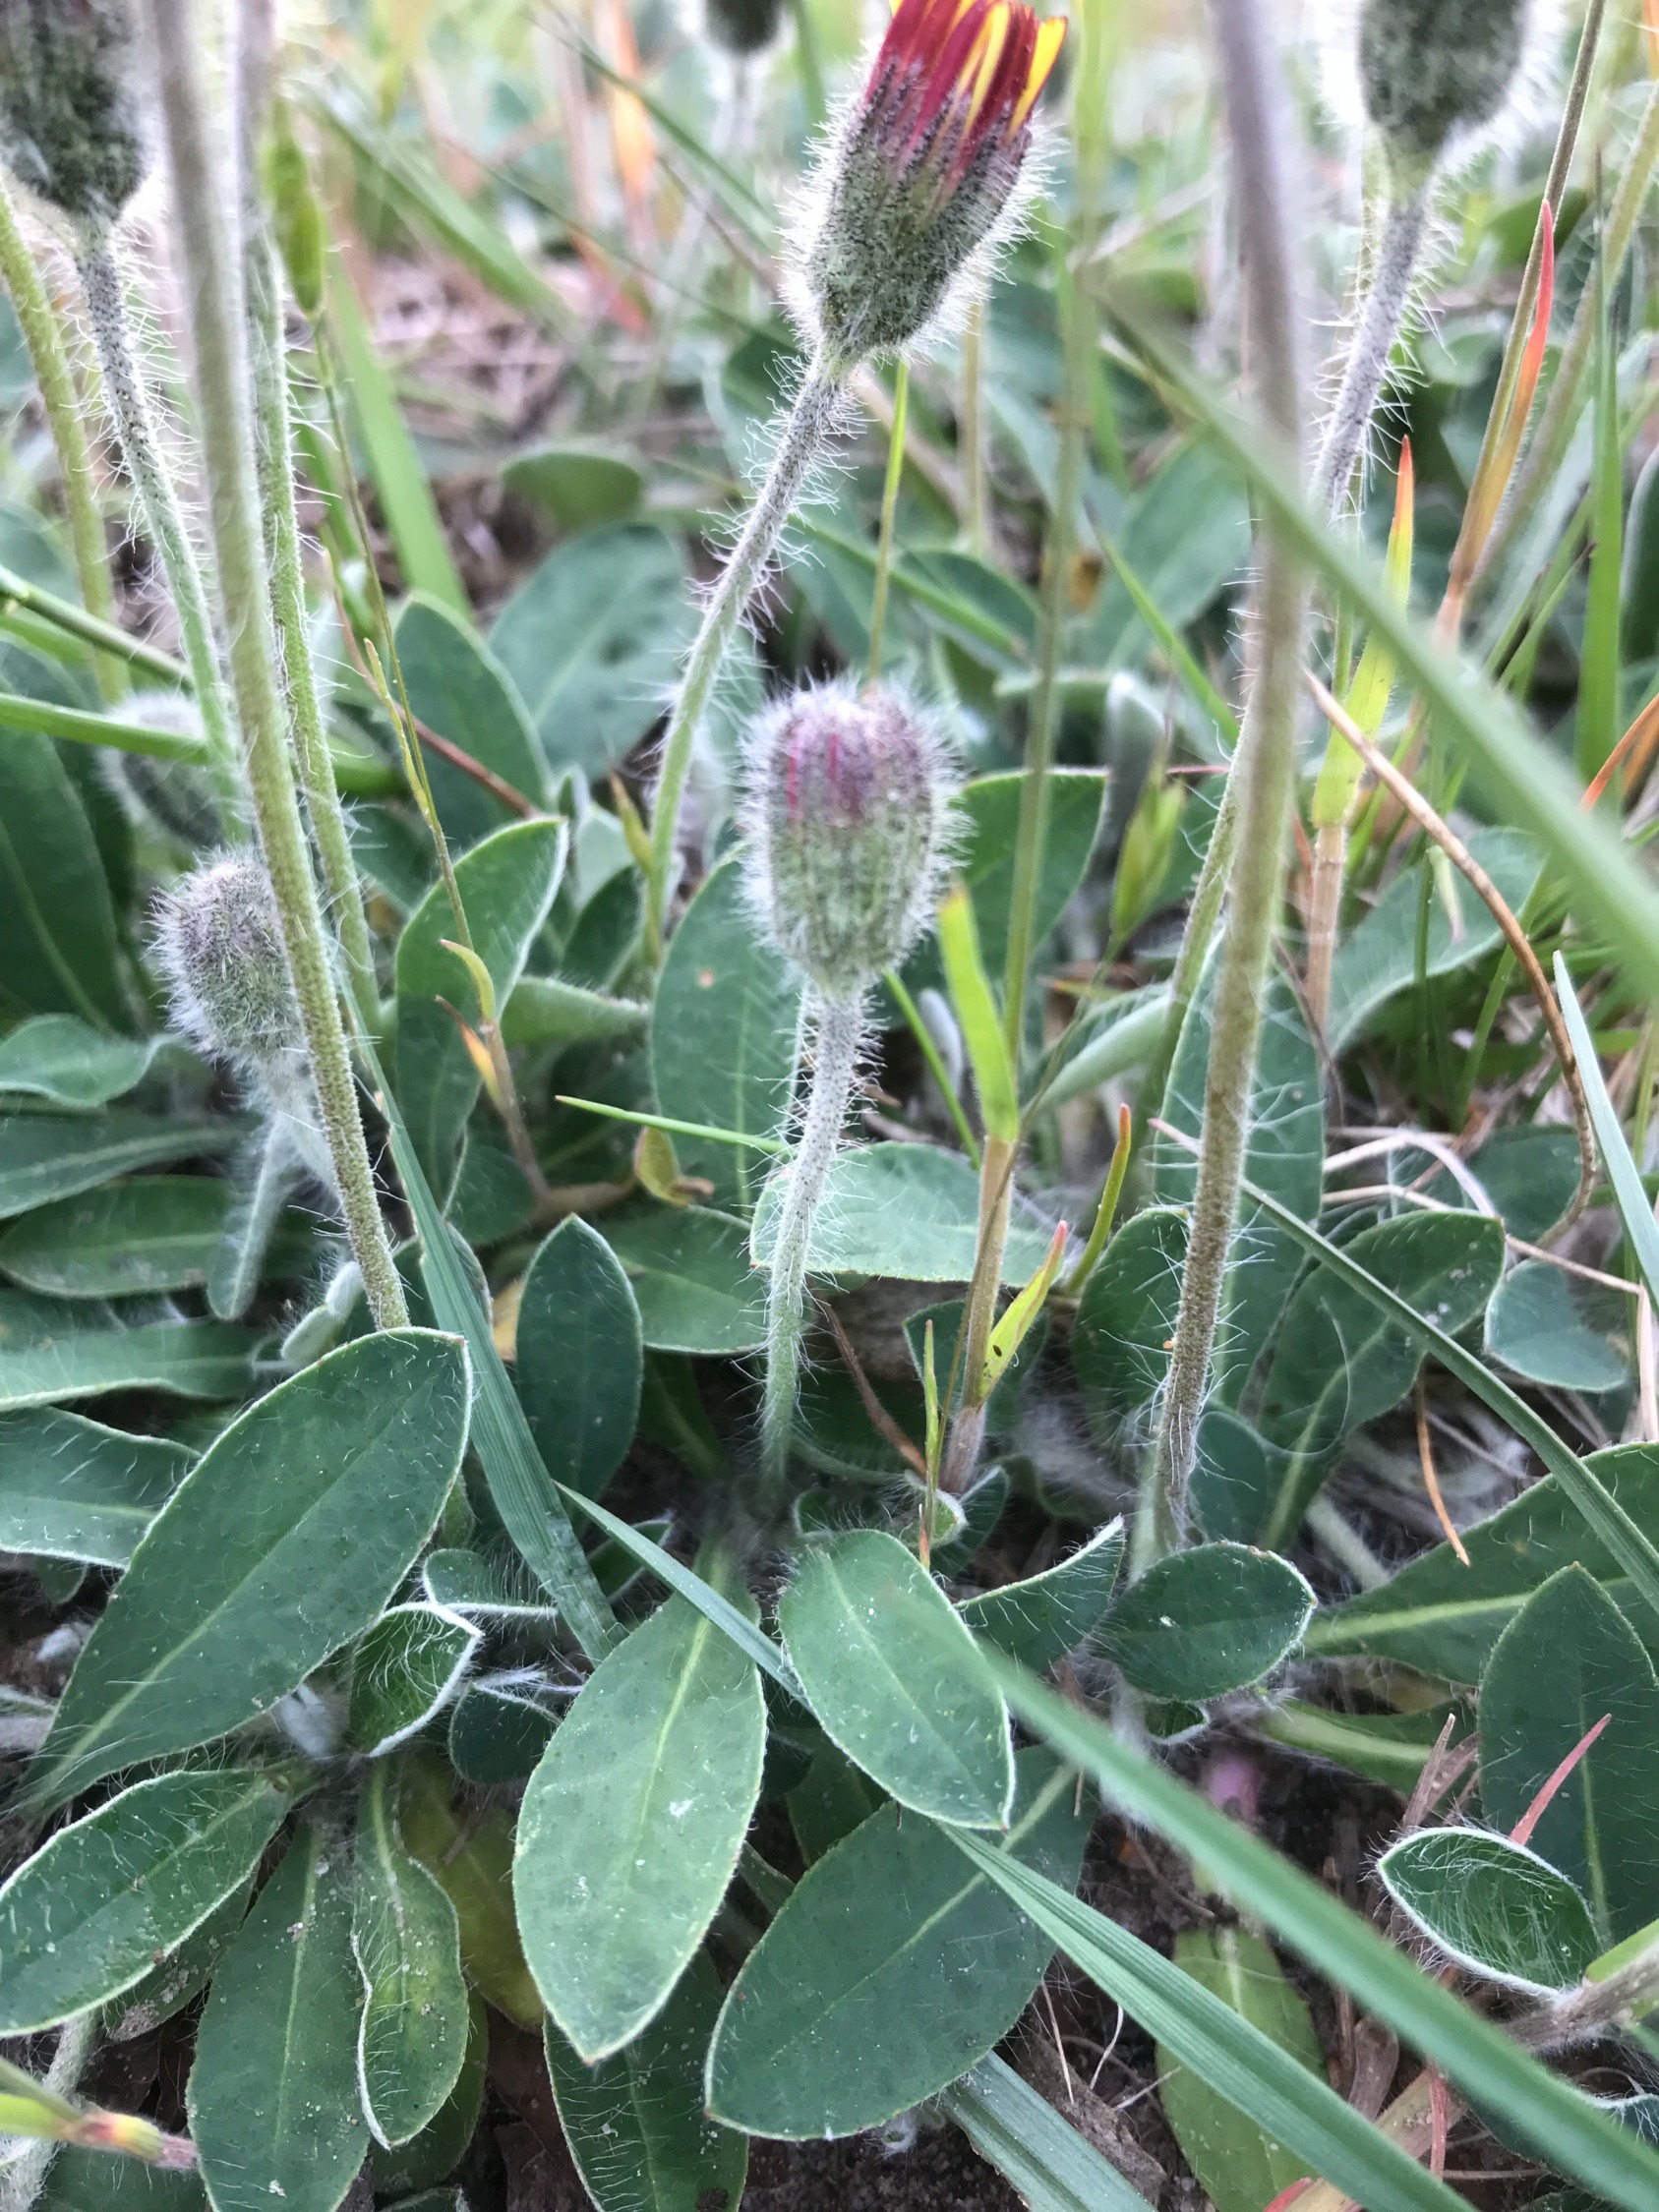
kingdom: Plantae
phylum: Tracheophyta
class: Magnoliopsida
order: Asterales
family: Asteraceae
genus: Pilosella
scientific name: Pilosella officinarum
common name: Håret høgeurt
